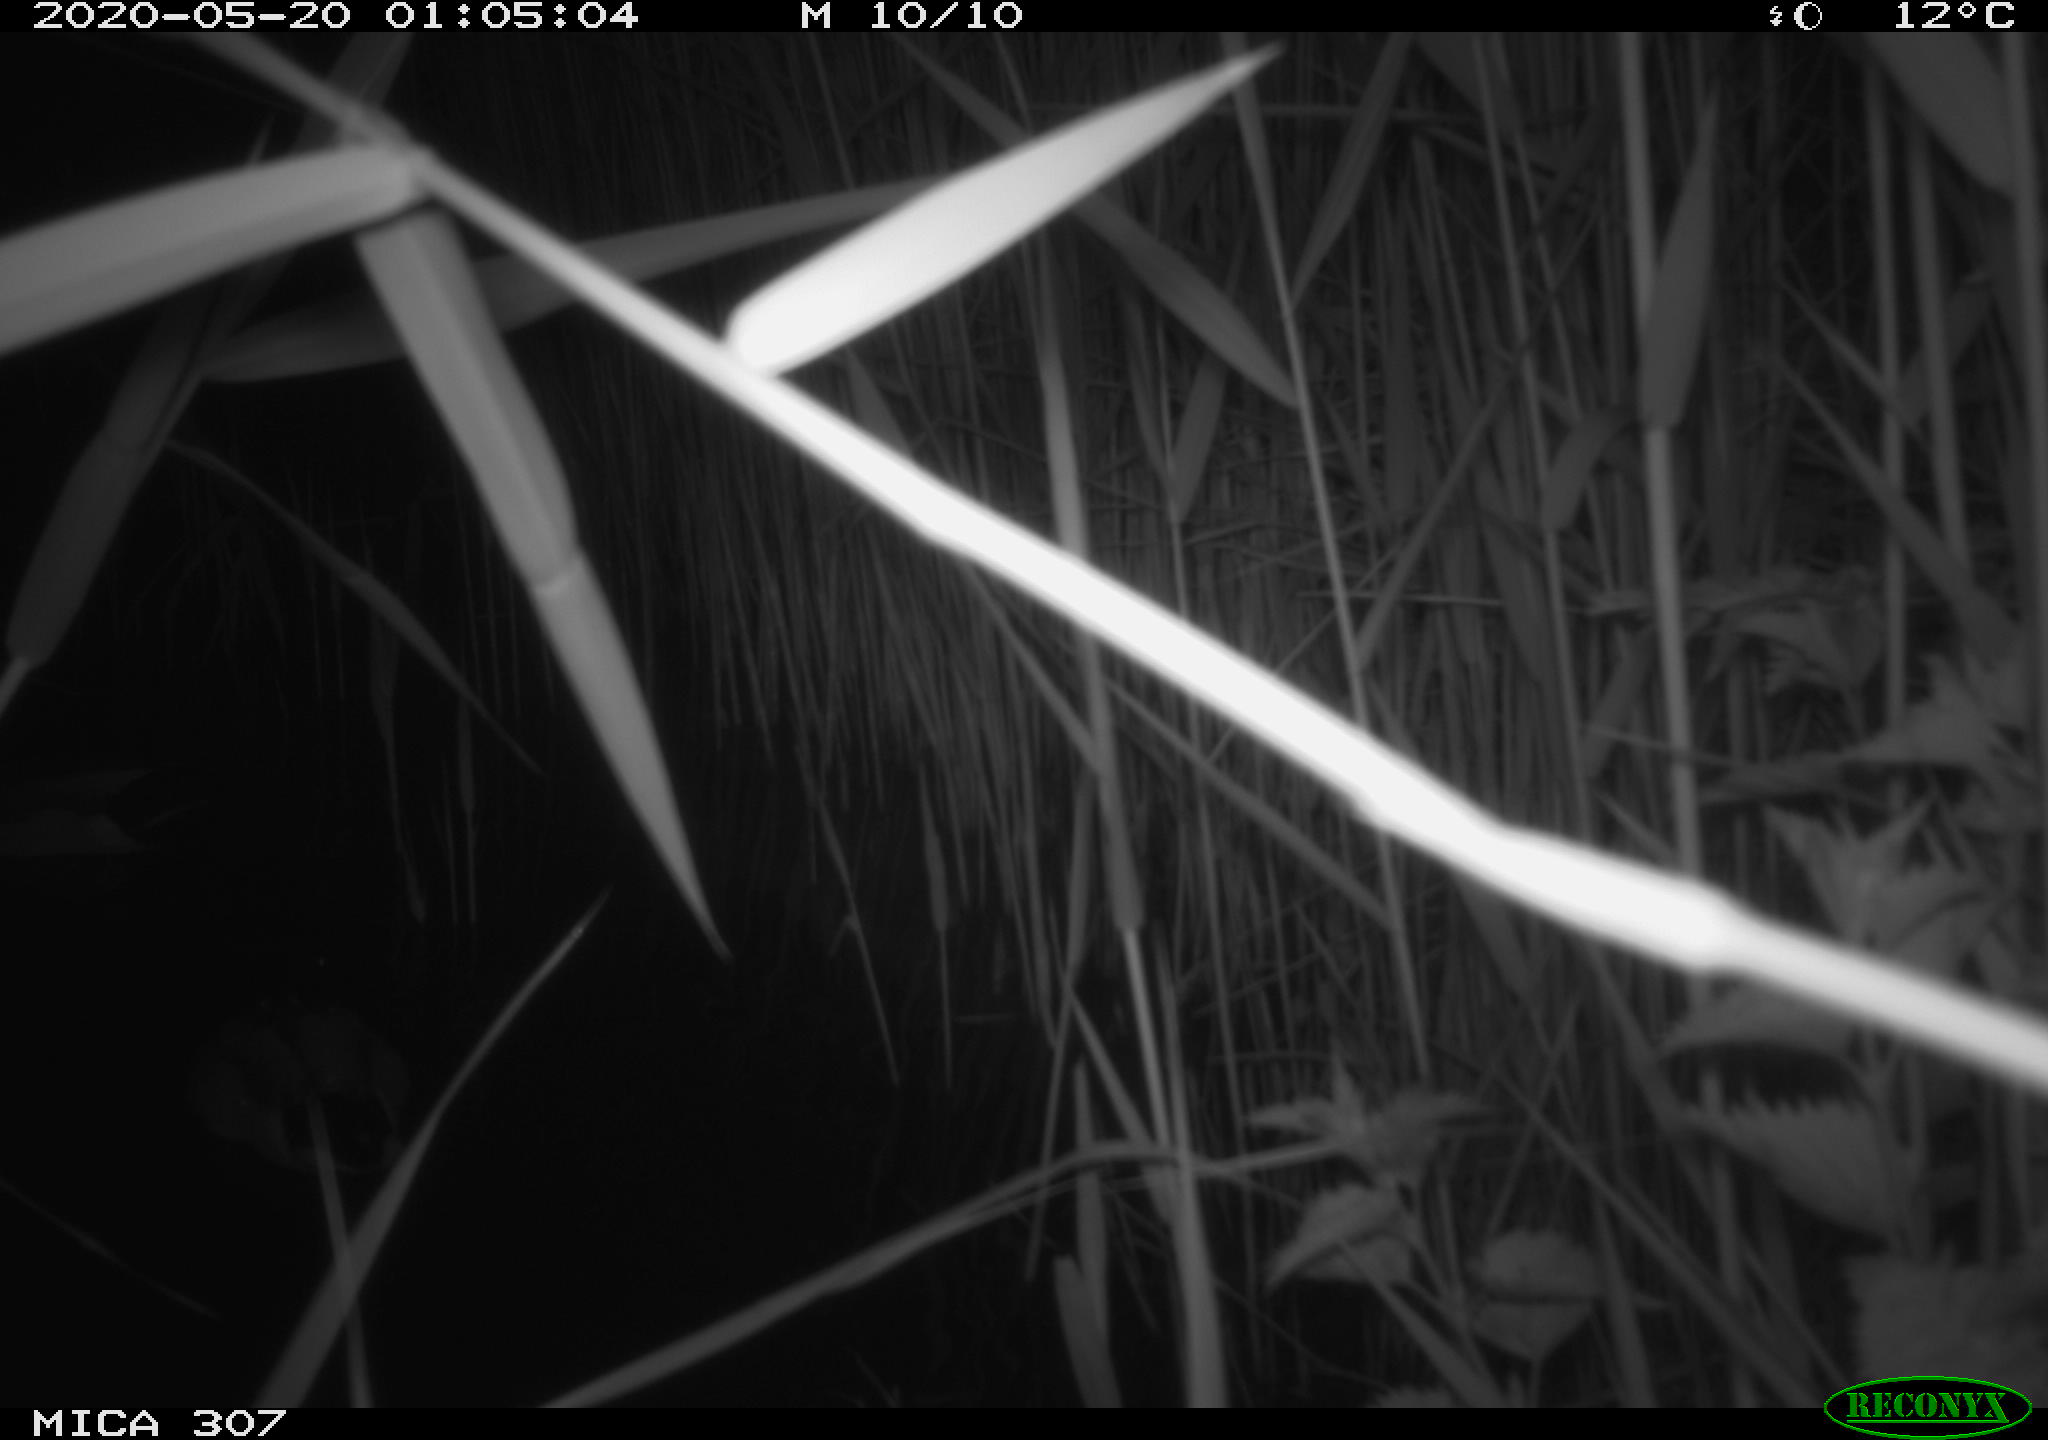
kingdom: Animalia
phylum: Chordata
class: Aves
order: Anseriformes
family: Anatidae
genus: Anas
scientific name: Anas platyrhynchos
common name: Mallard
